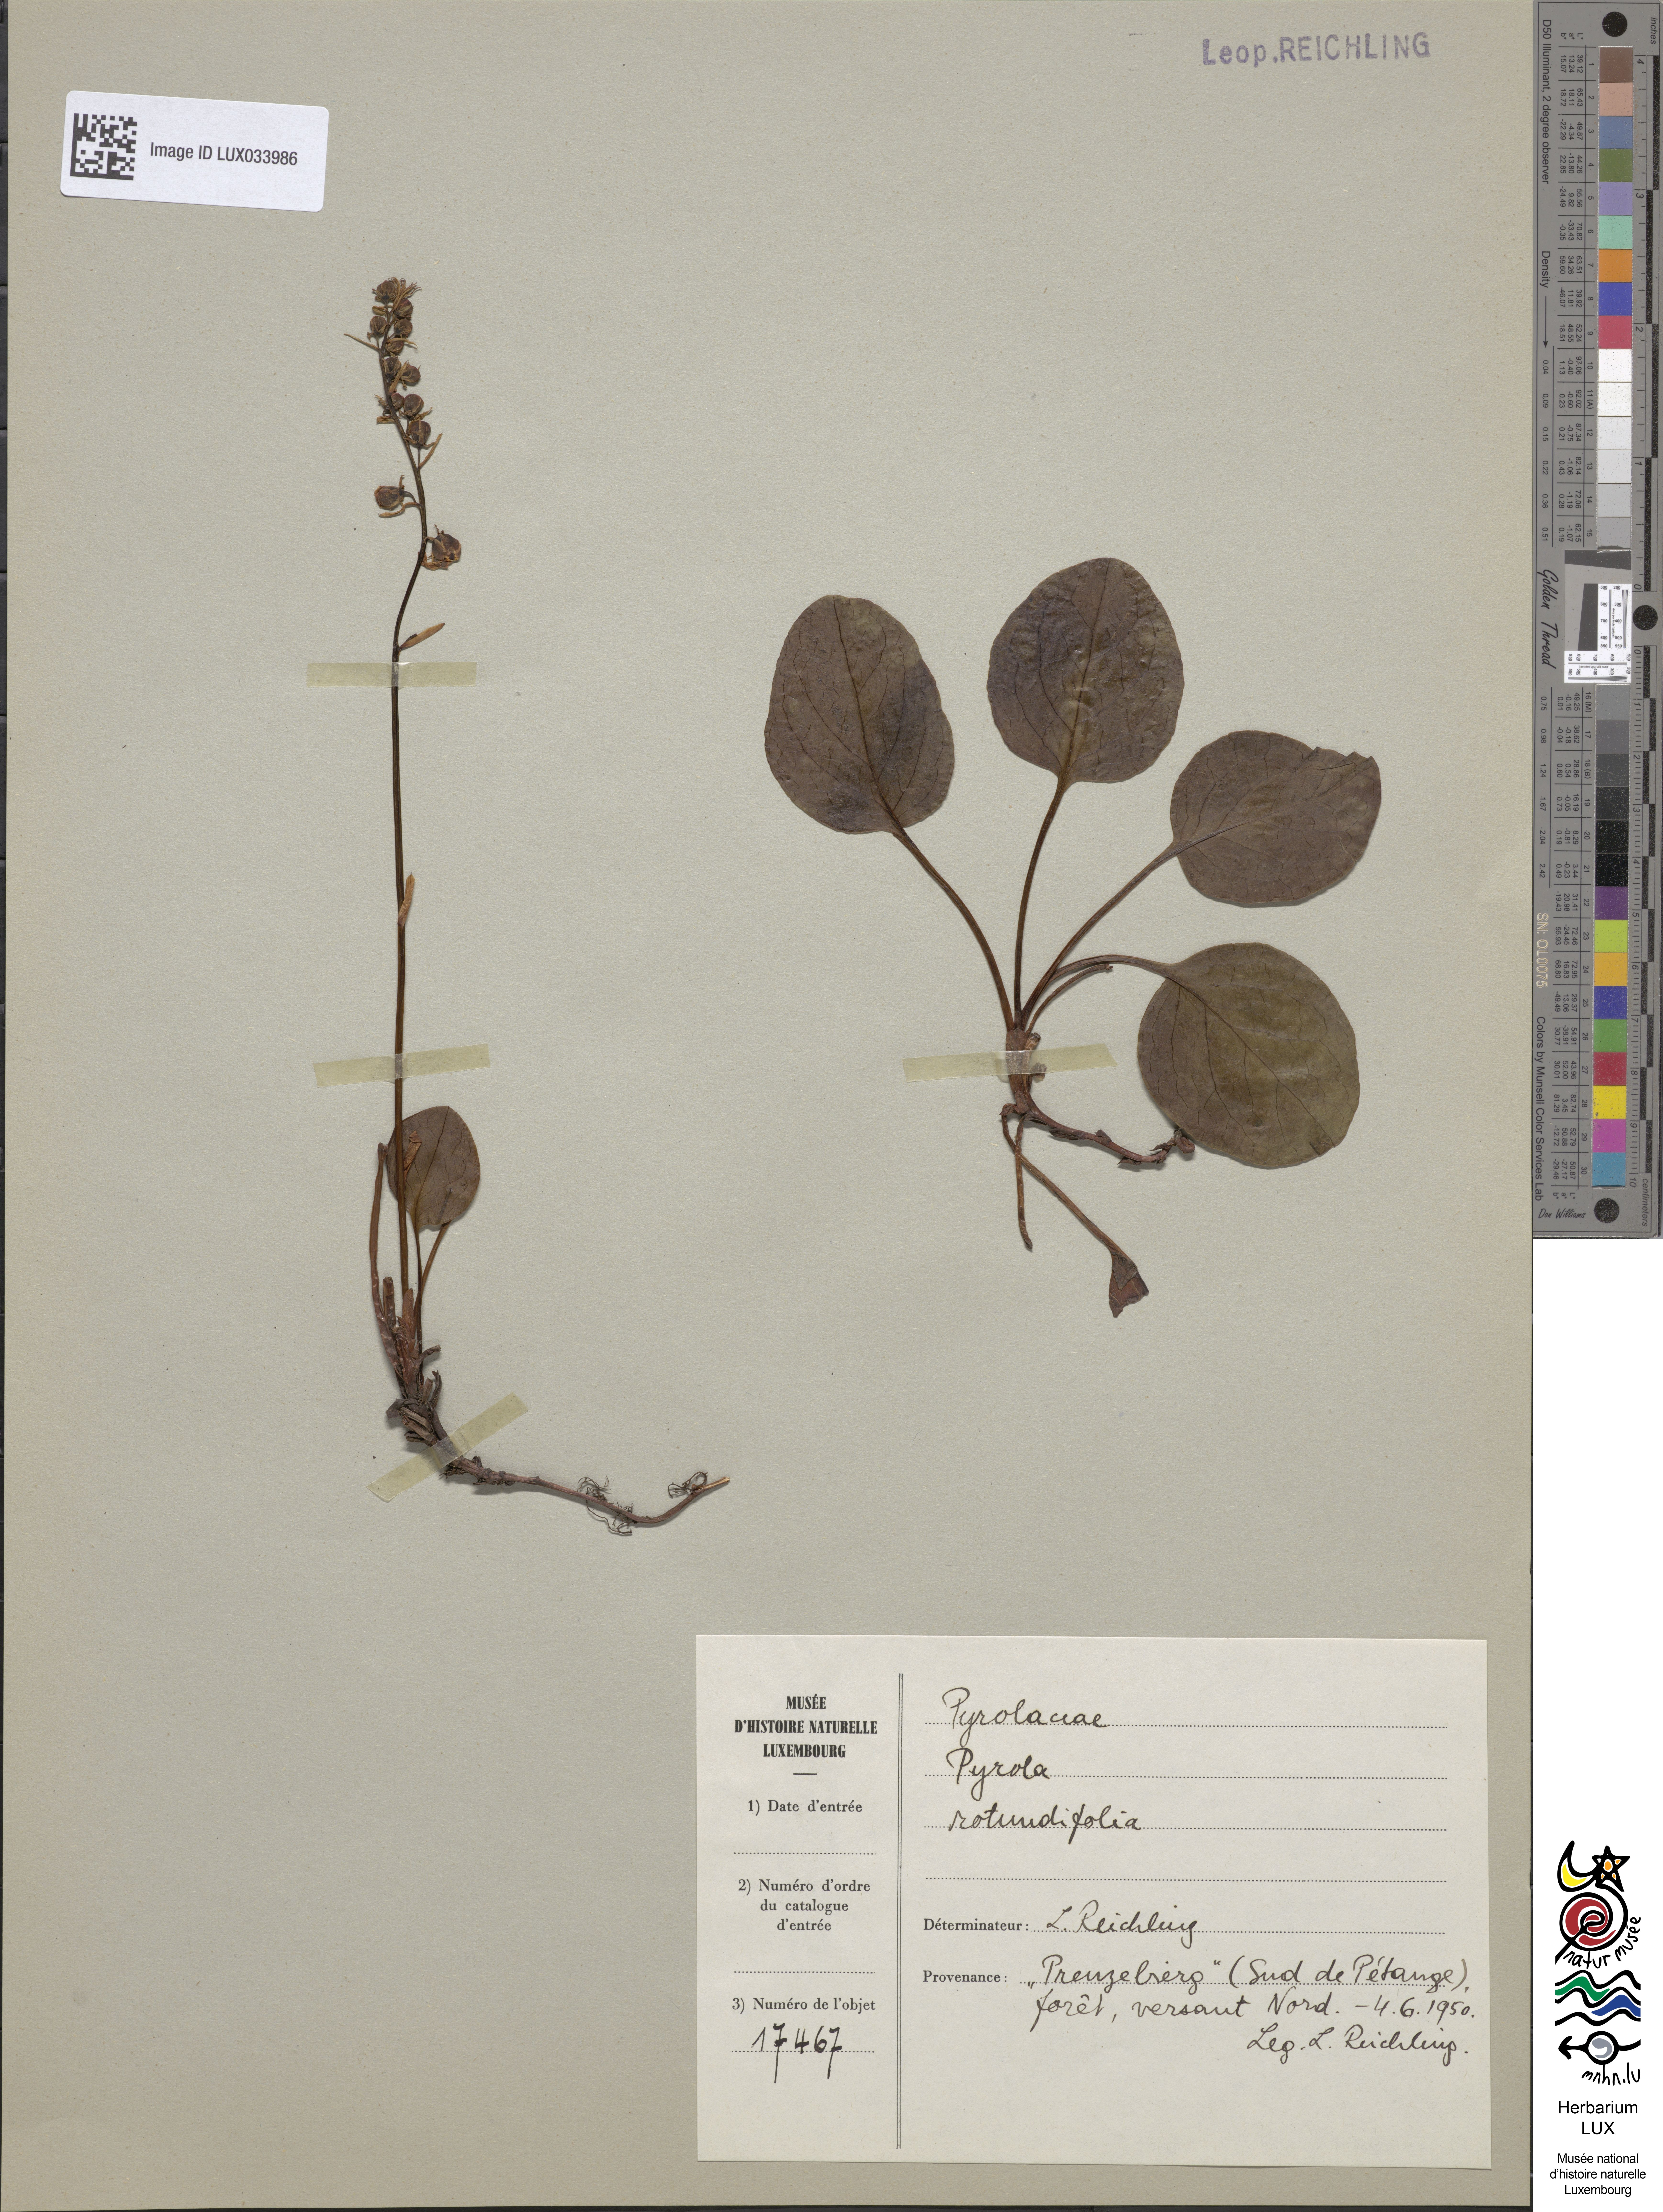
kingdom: Plantae
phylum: Tracheophyta
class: Magnoliopsida
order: Ericales
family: Ericaceae
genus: Pyrola
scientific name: Pyrola rotundifolia
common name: Round-leaved wintergreen
